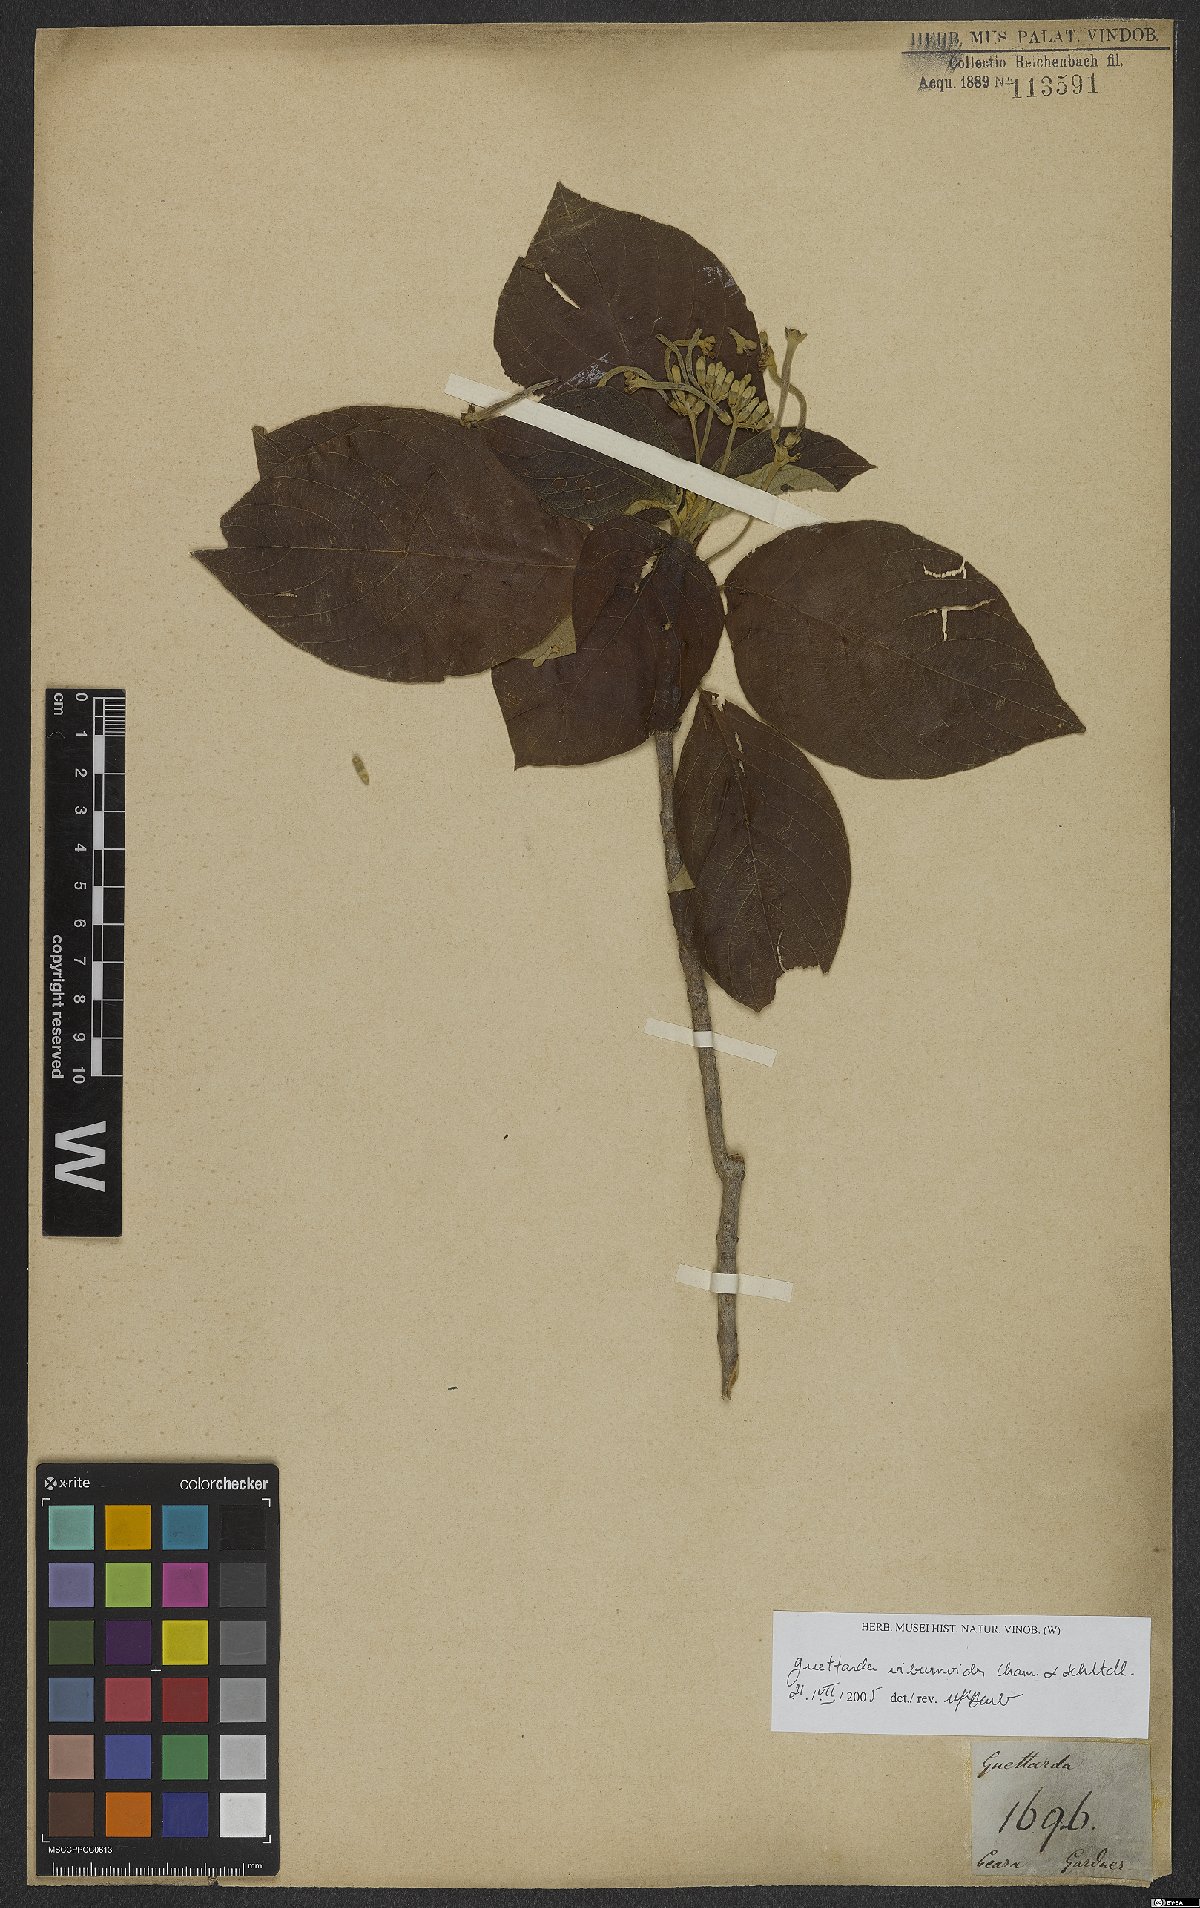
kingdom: Plantae
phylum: Tracheophyta
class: Magnoliopsida
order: Gentianales
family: Rubiaceae
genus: Guettarda
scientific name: Guettarda viburnoides
